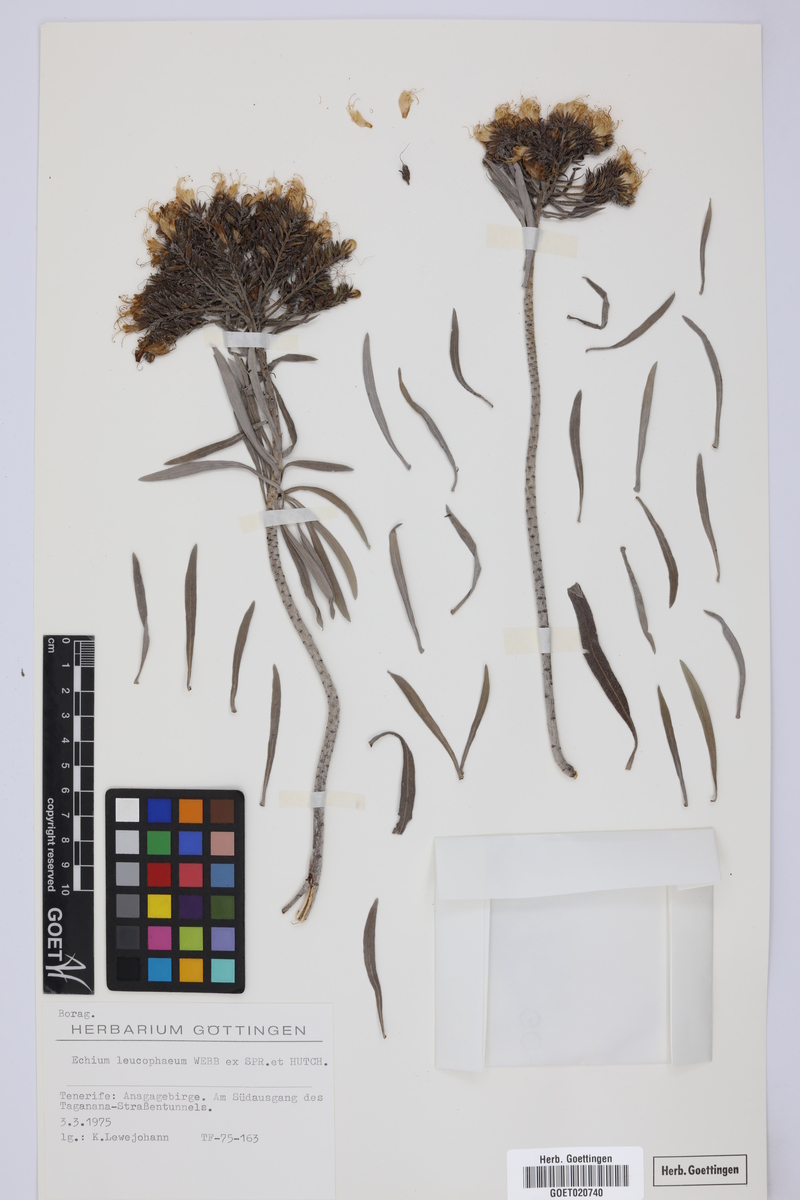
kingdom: Plantae
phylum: Tracheophyta
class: Magnoliopsida
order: Boraginales
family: Boraginaceae
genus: Echium
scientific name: Echium leucophaeum
